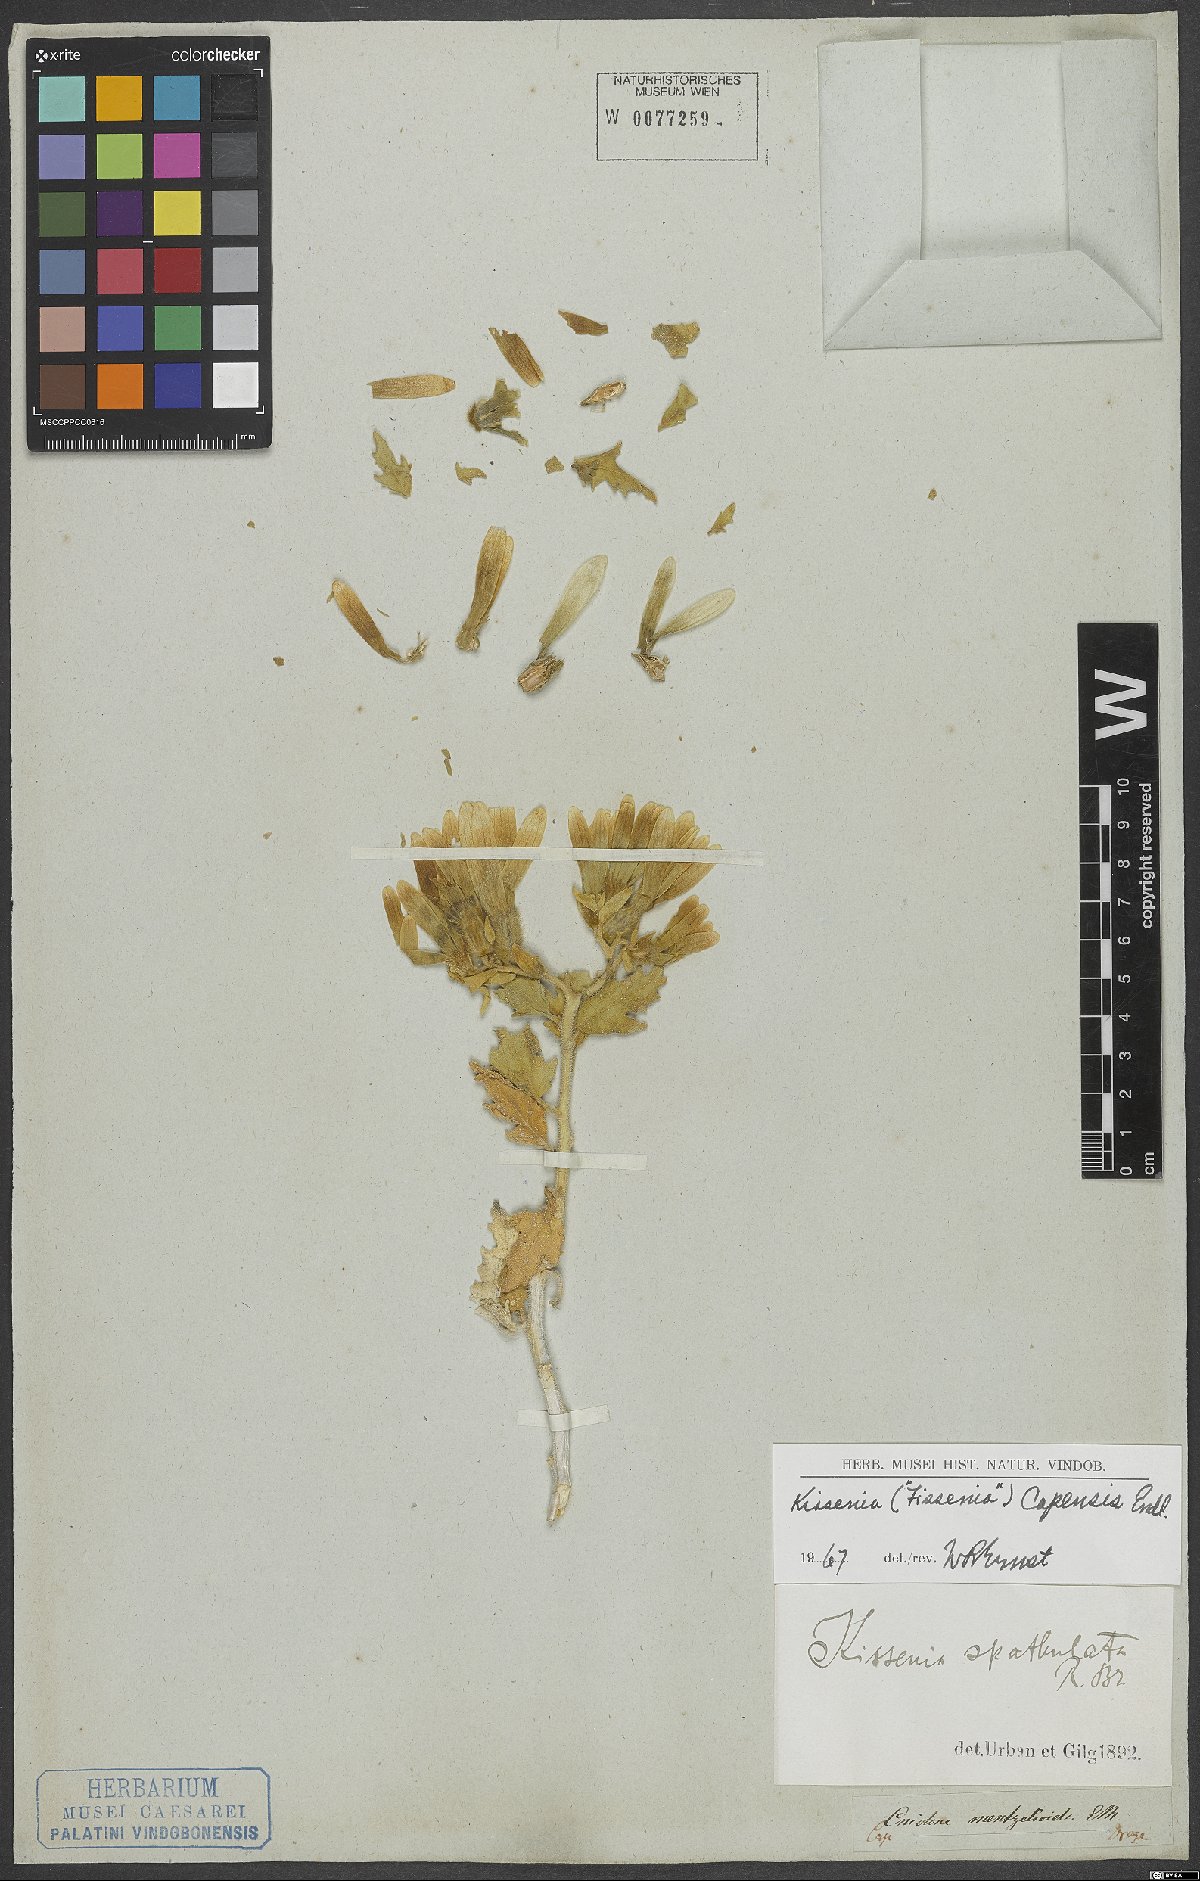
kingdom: Plantae
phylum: Tracheophyta
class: Magnoliopsida
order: Cornales
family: Loasaceae
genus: Kissenia
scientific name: Kissenia capensis
